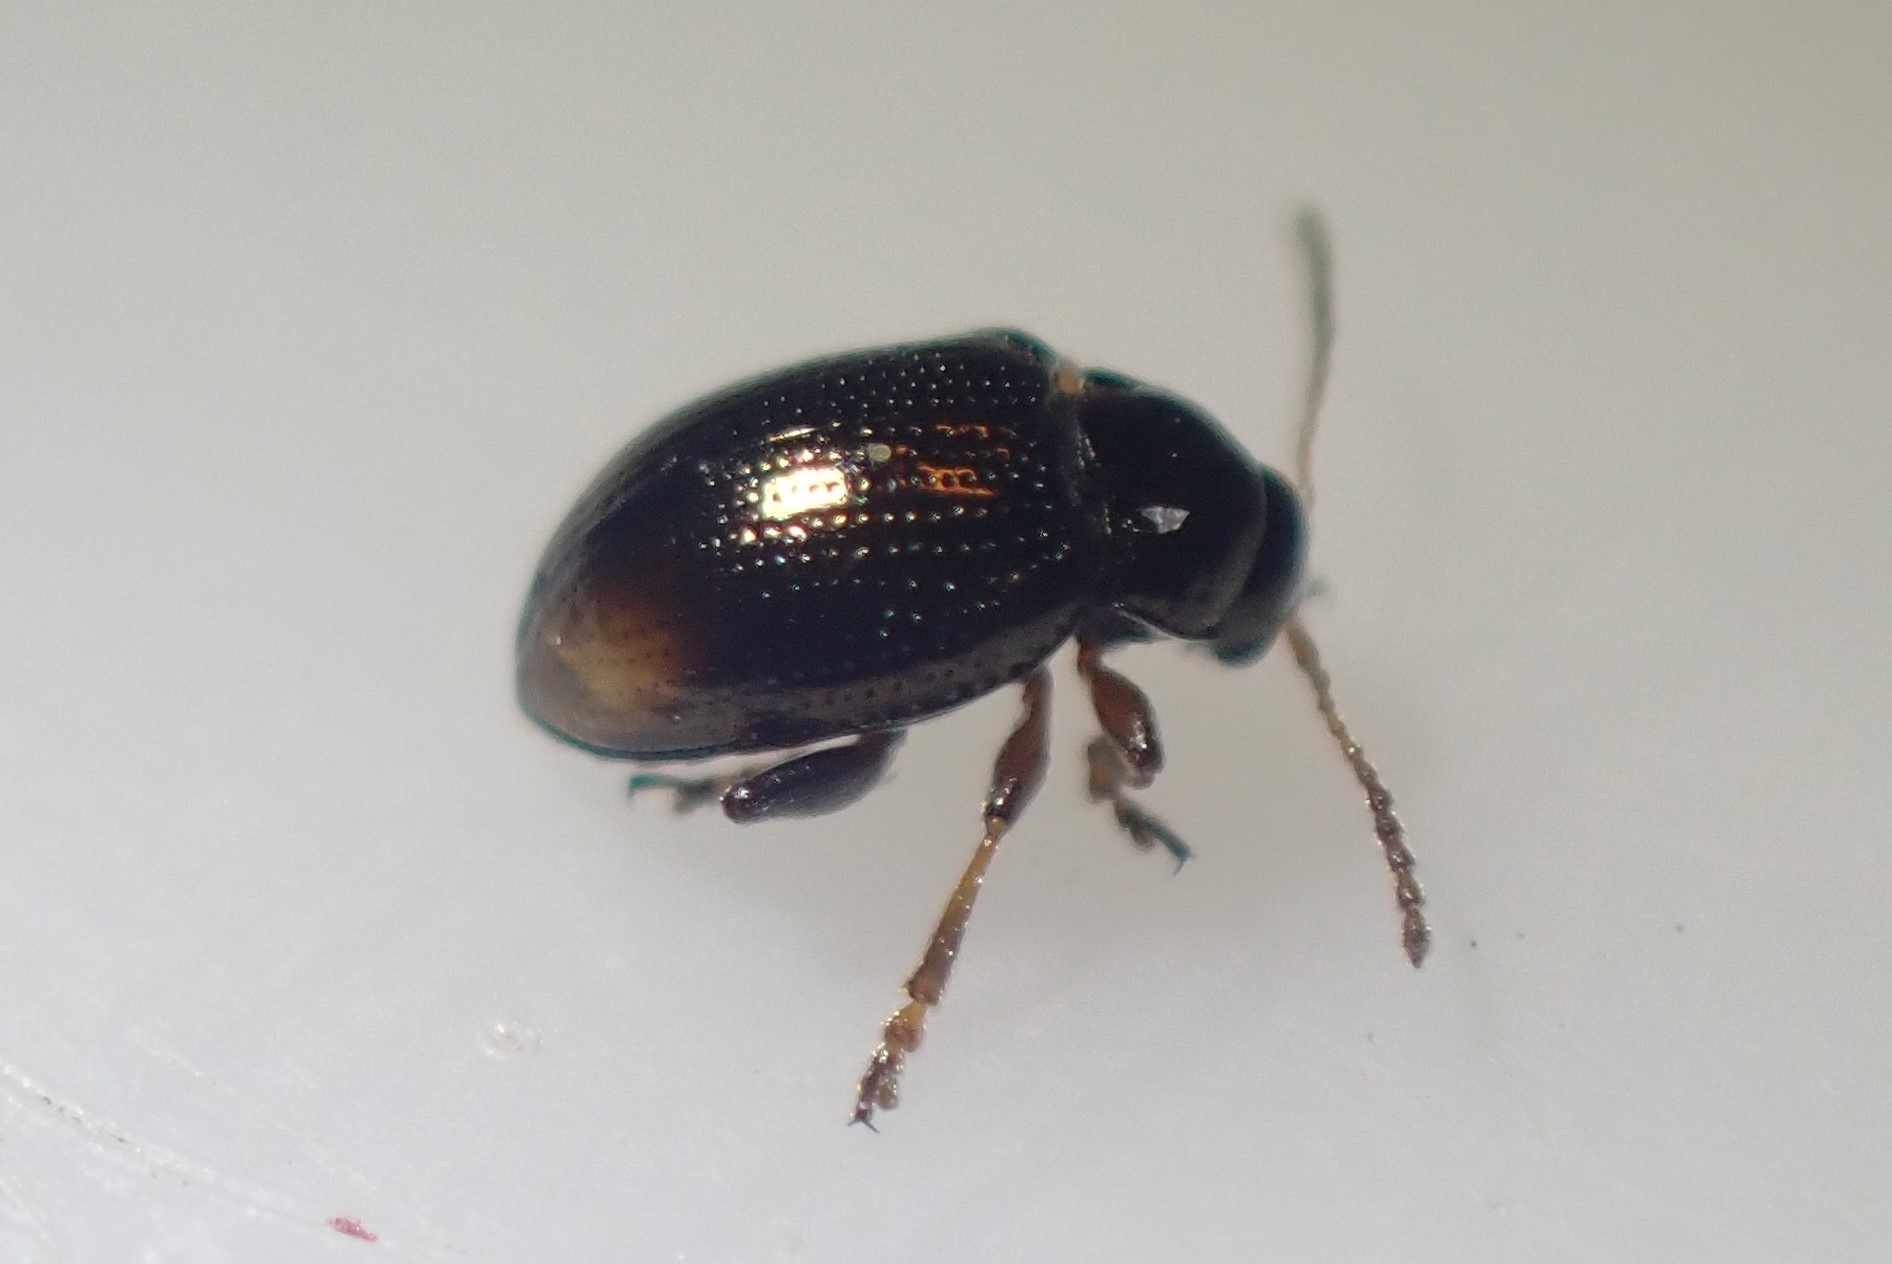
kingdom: Animalia
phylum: Arthropoda
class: Insecta
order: Coleoptera
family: Chrysomelidae
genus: Hippuriphila
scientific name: Hippuriphila modeeri
